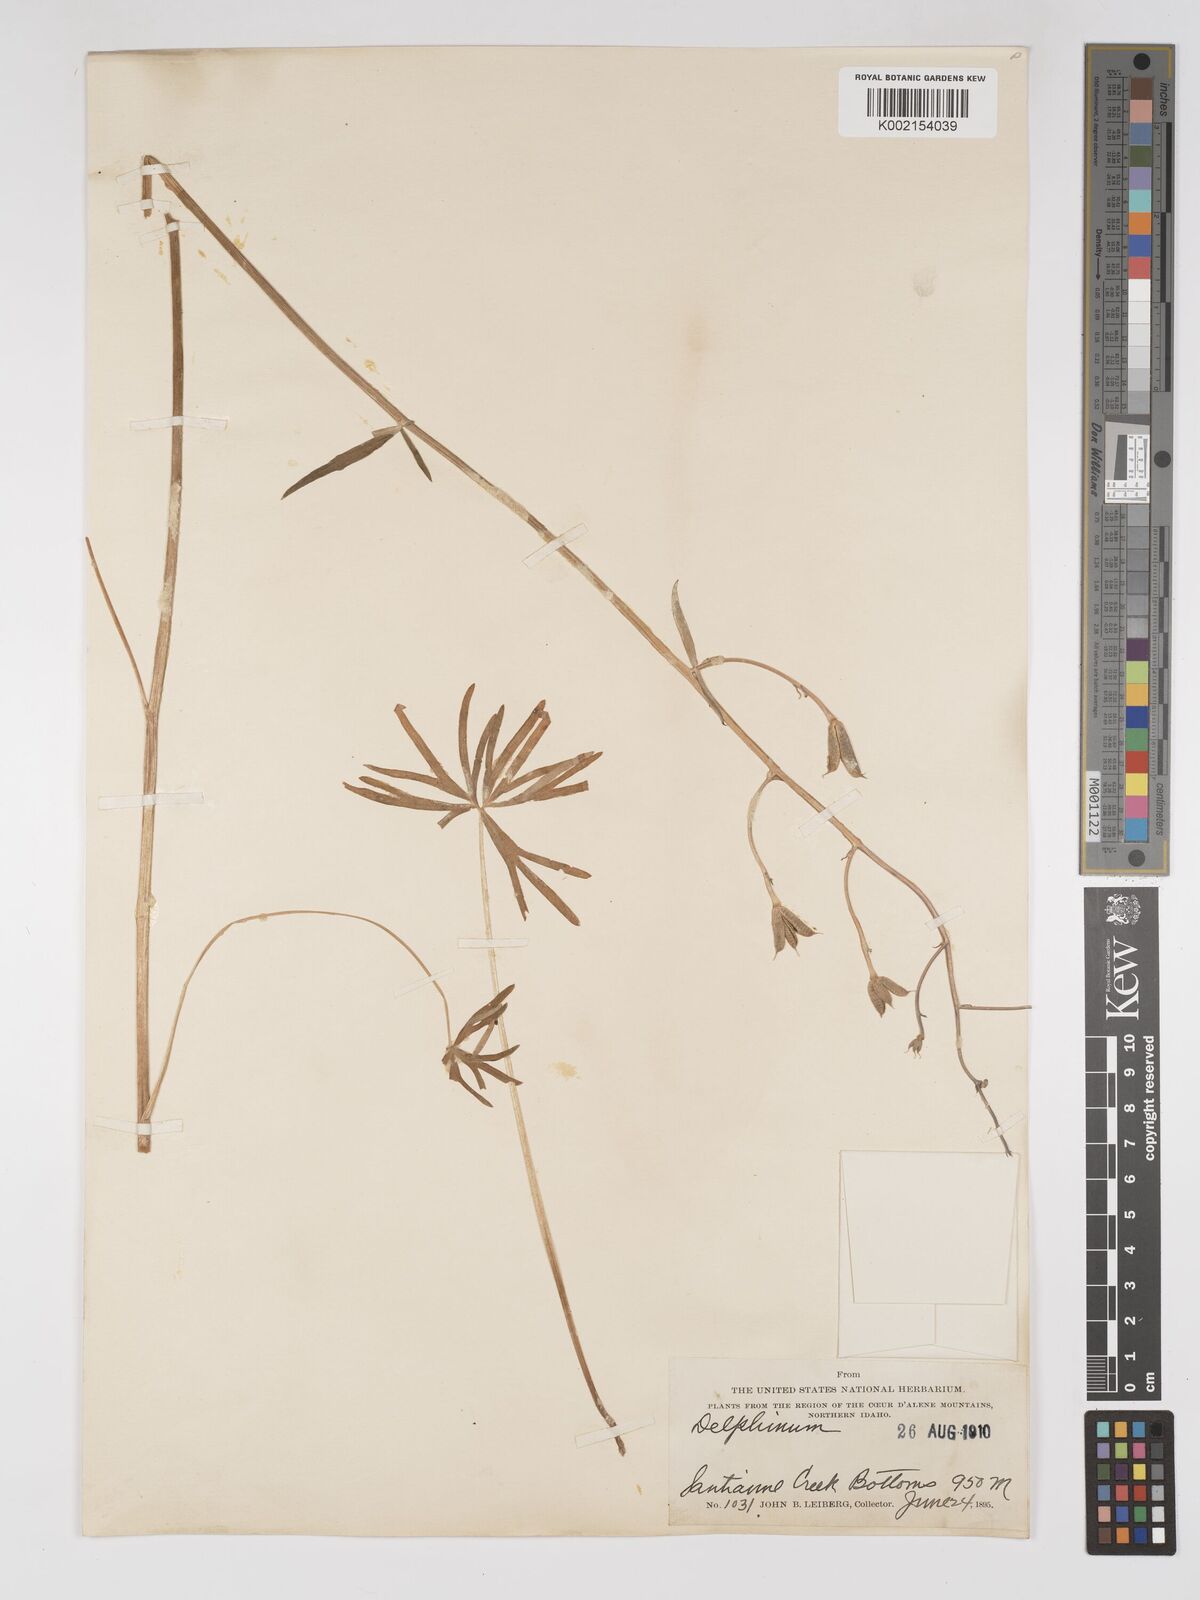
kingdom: Plantae
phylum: Tracheophyta
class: Magnoliopsida
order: Ranunculales
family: Ranunculaceae
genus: Delphinium
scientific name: Delphinium
